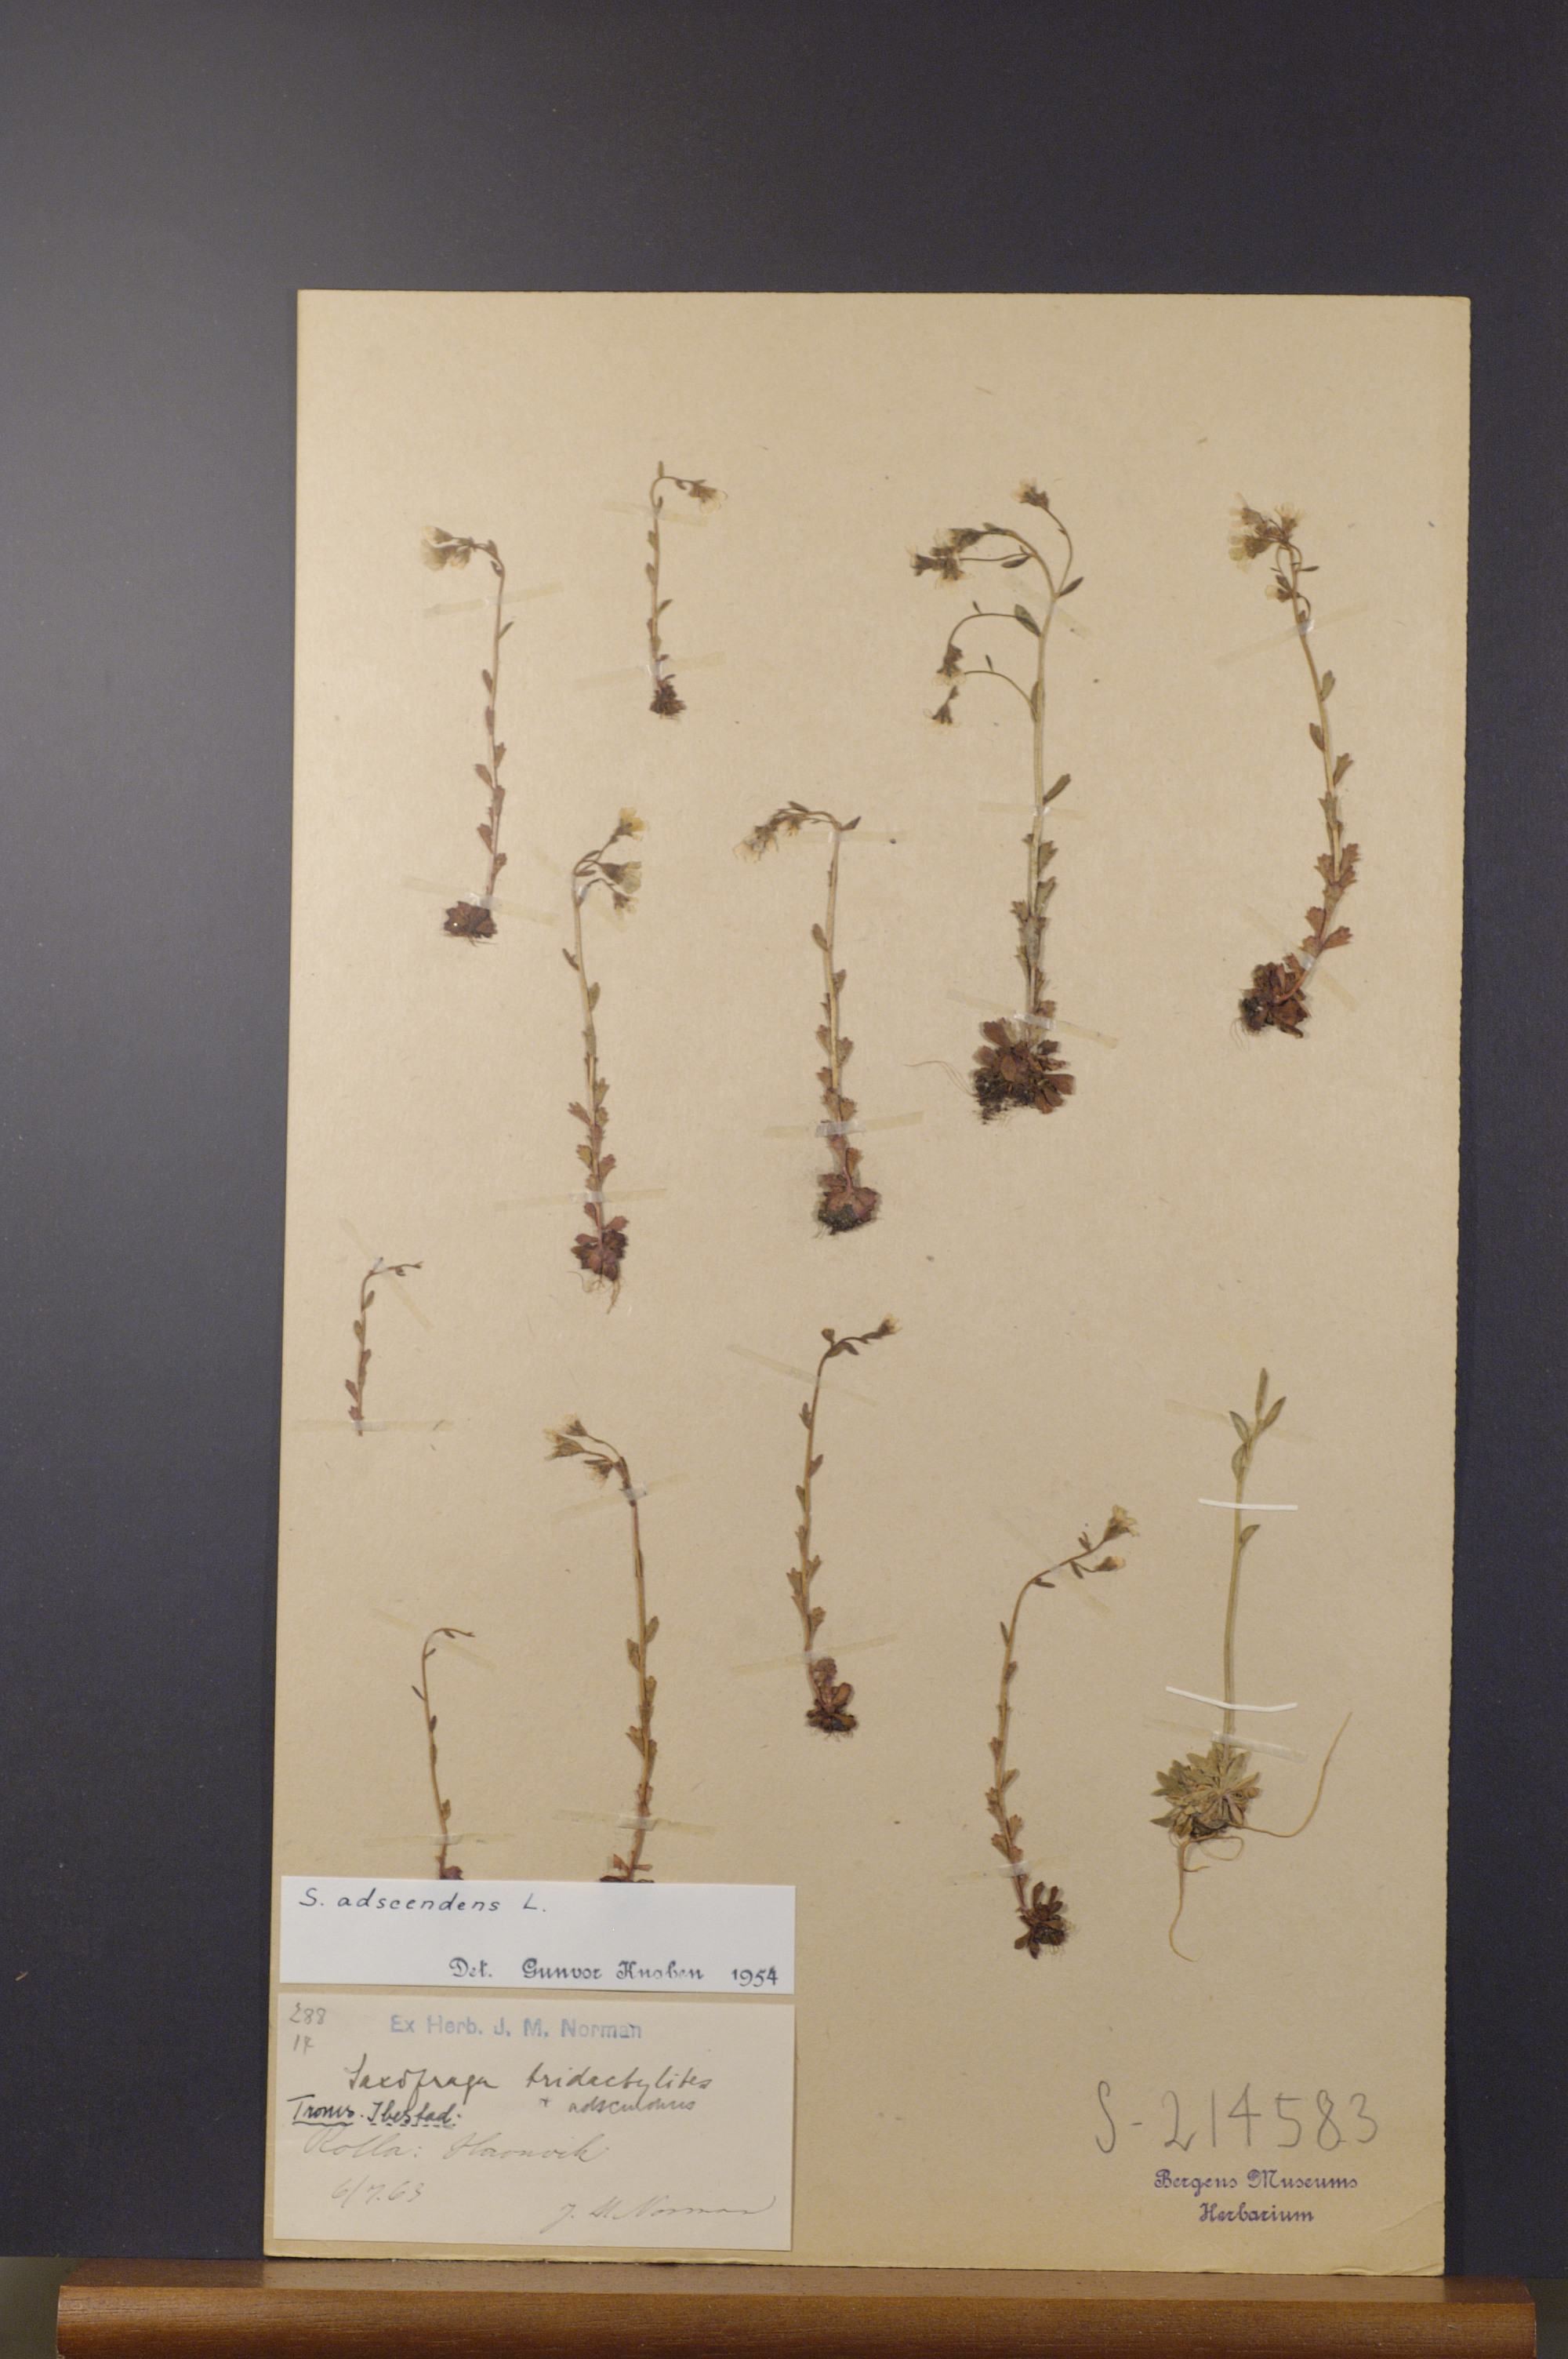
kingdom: Plantae
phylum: Tracheophyta
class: Magnoliopsida
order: Saxifragales
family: Saxifragaceae
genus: Saxifraga
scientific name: Saxifraga adscendens
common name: Ascending saxifrage
